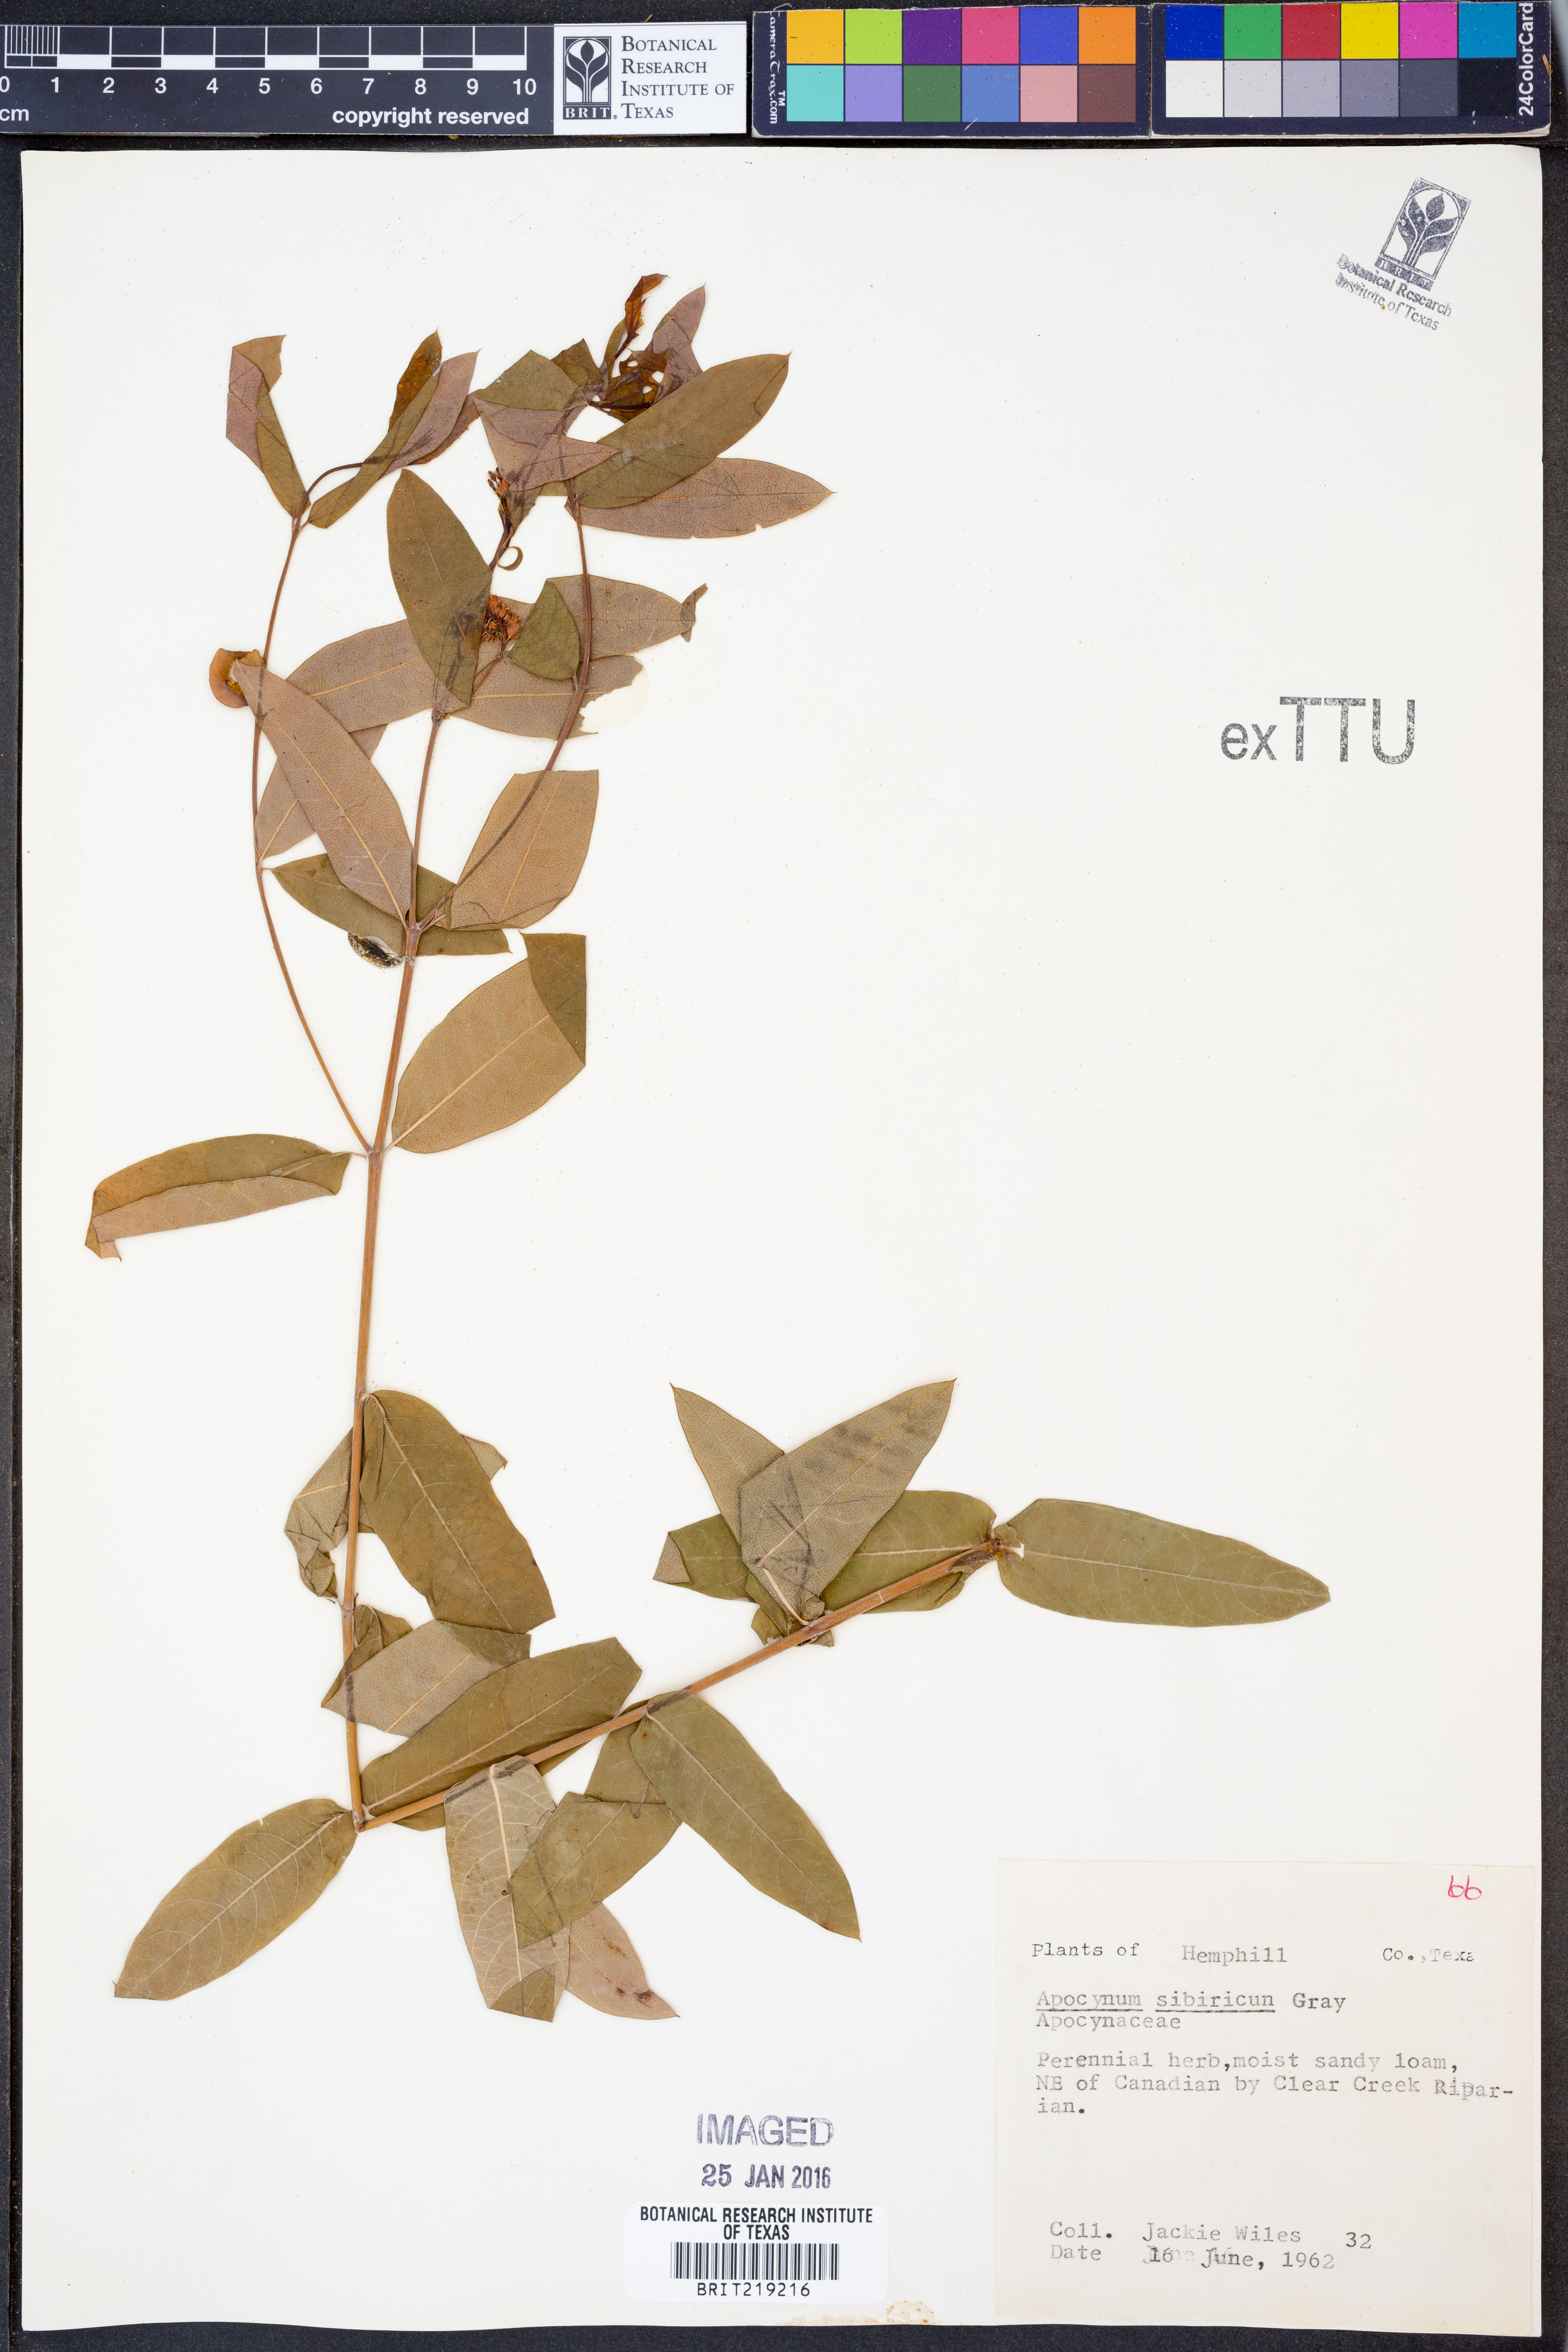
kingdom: Plantae
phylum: Tracheophyta
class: Magnoliopsida
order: Gentianales
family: Apocynaceae
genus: Apocynum
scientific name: Apocynum cannabinum
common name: Hemp dogbane
